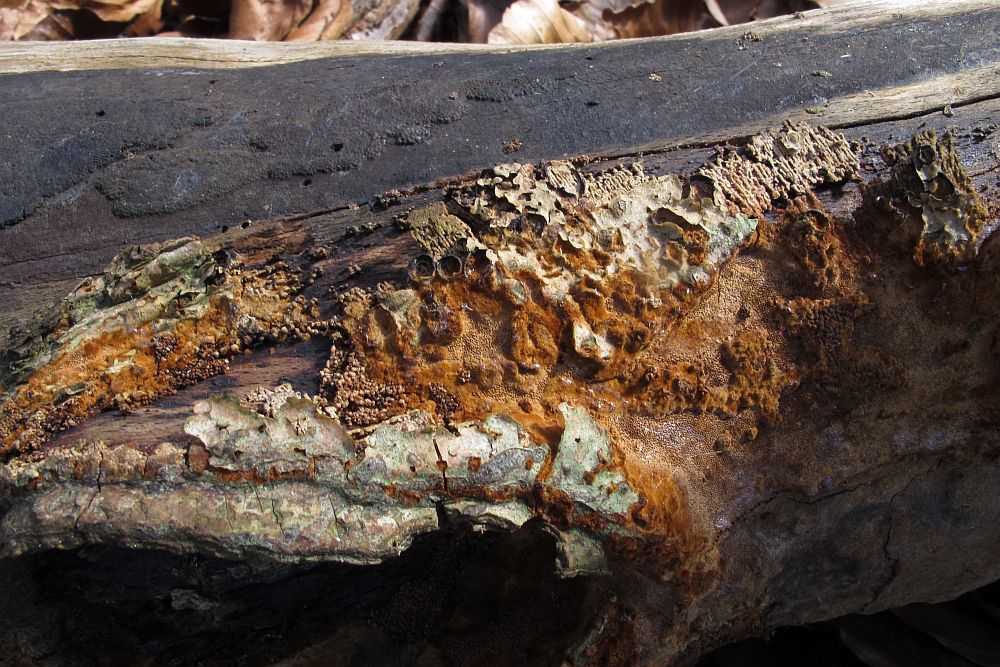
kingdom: Fungi
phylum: Basidiomycota
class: Agaricomycetes
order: Hymenochaetales
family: Hymenochaetaceae
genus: Fuscoporia
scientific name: Fuscoporia ferruginosa
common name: rustbrun ildporesvamp
